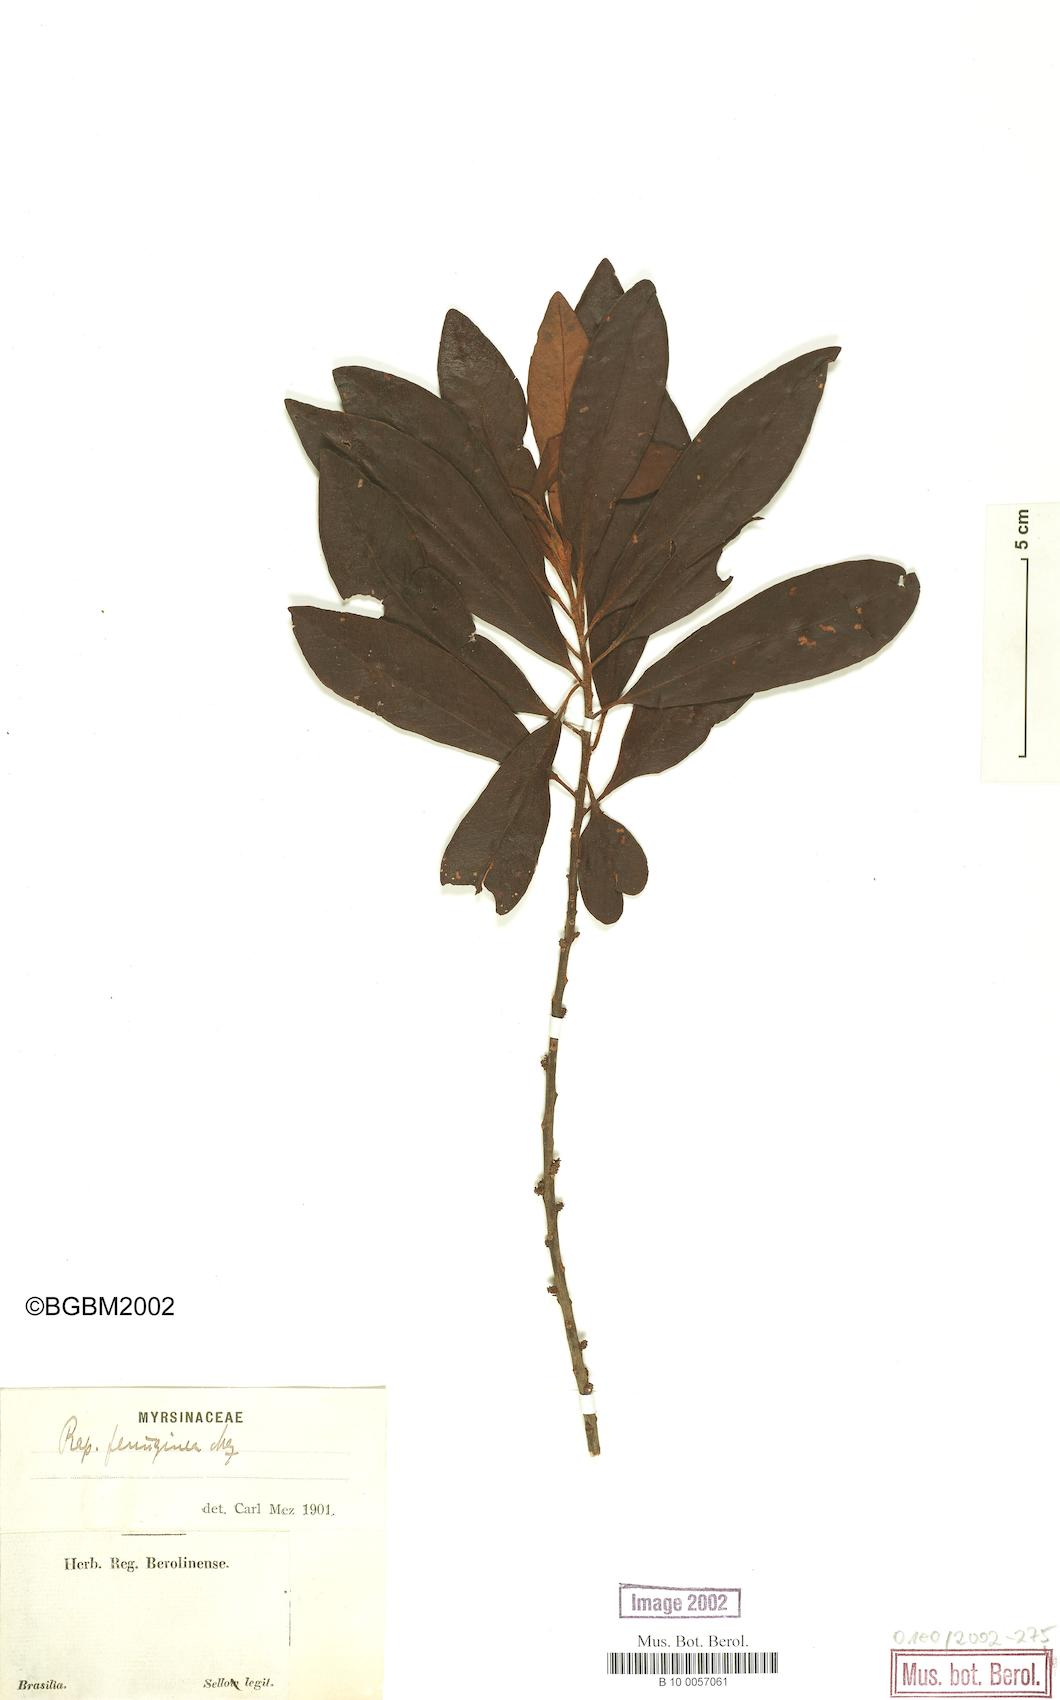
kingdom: Plantae
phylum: Tracheophyta
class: Magnoliopsida
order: Ericales
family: Primulaceae
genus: Myrsine
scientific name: Myrsine coriacea
